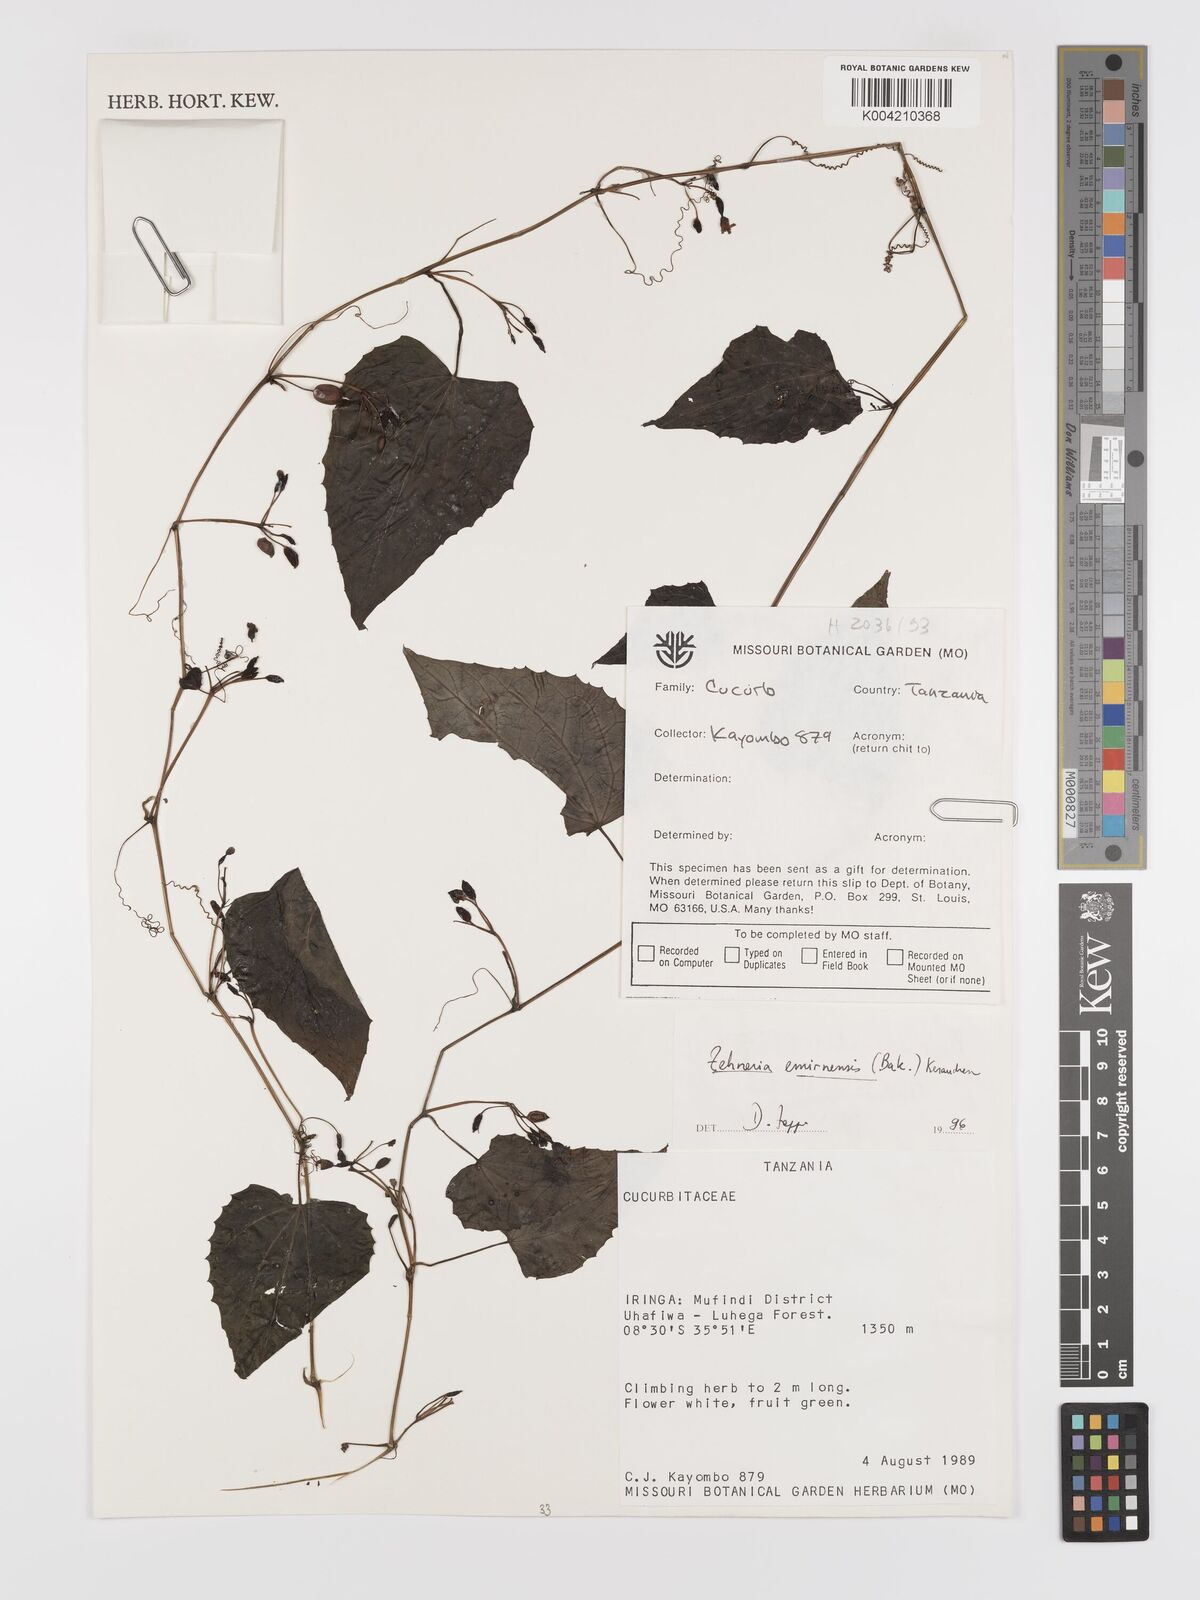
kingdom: Plantae
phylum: Tracheophyta
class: Magnoliopsida
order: Cucurbitales
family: Cucurbitaceae
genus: Zehneria
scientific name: Zehneria emirnensis
